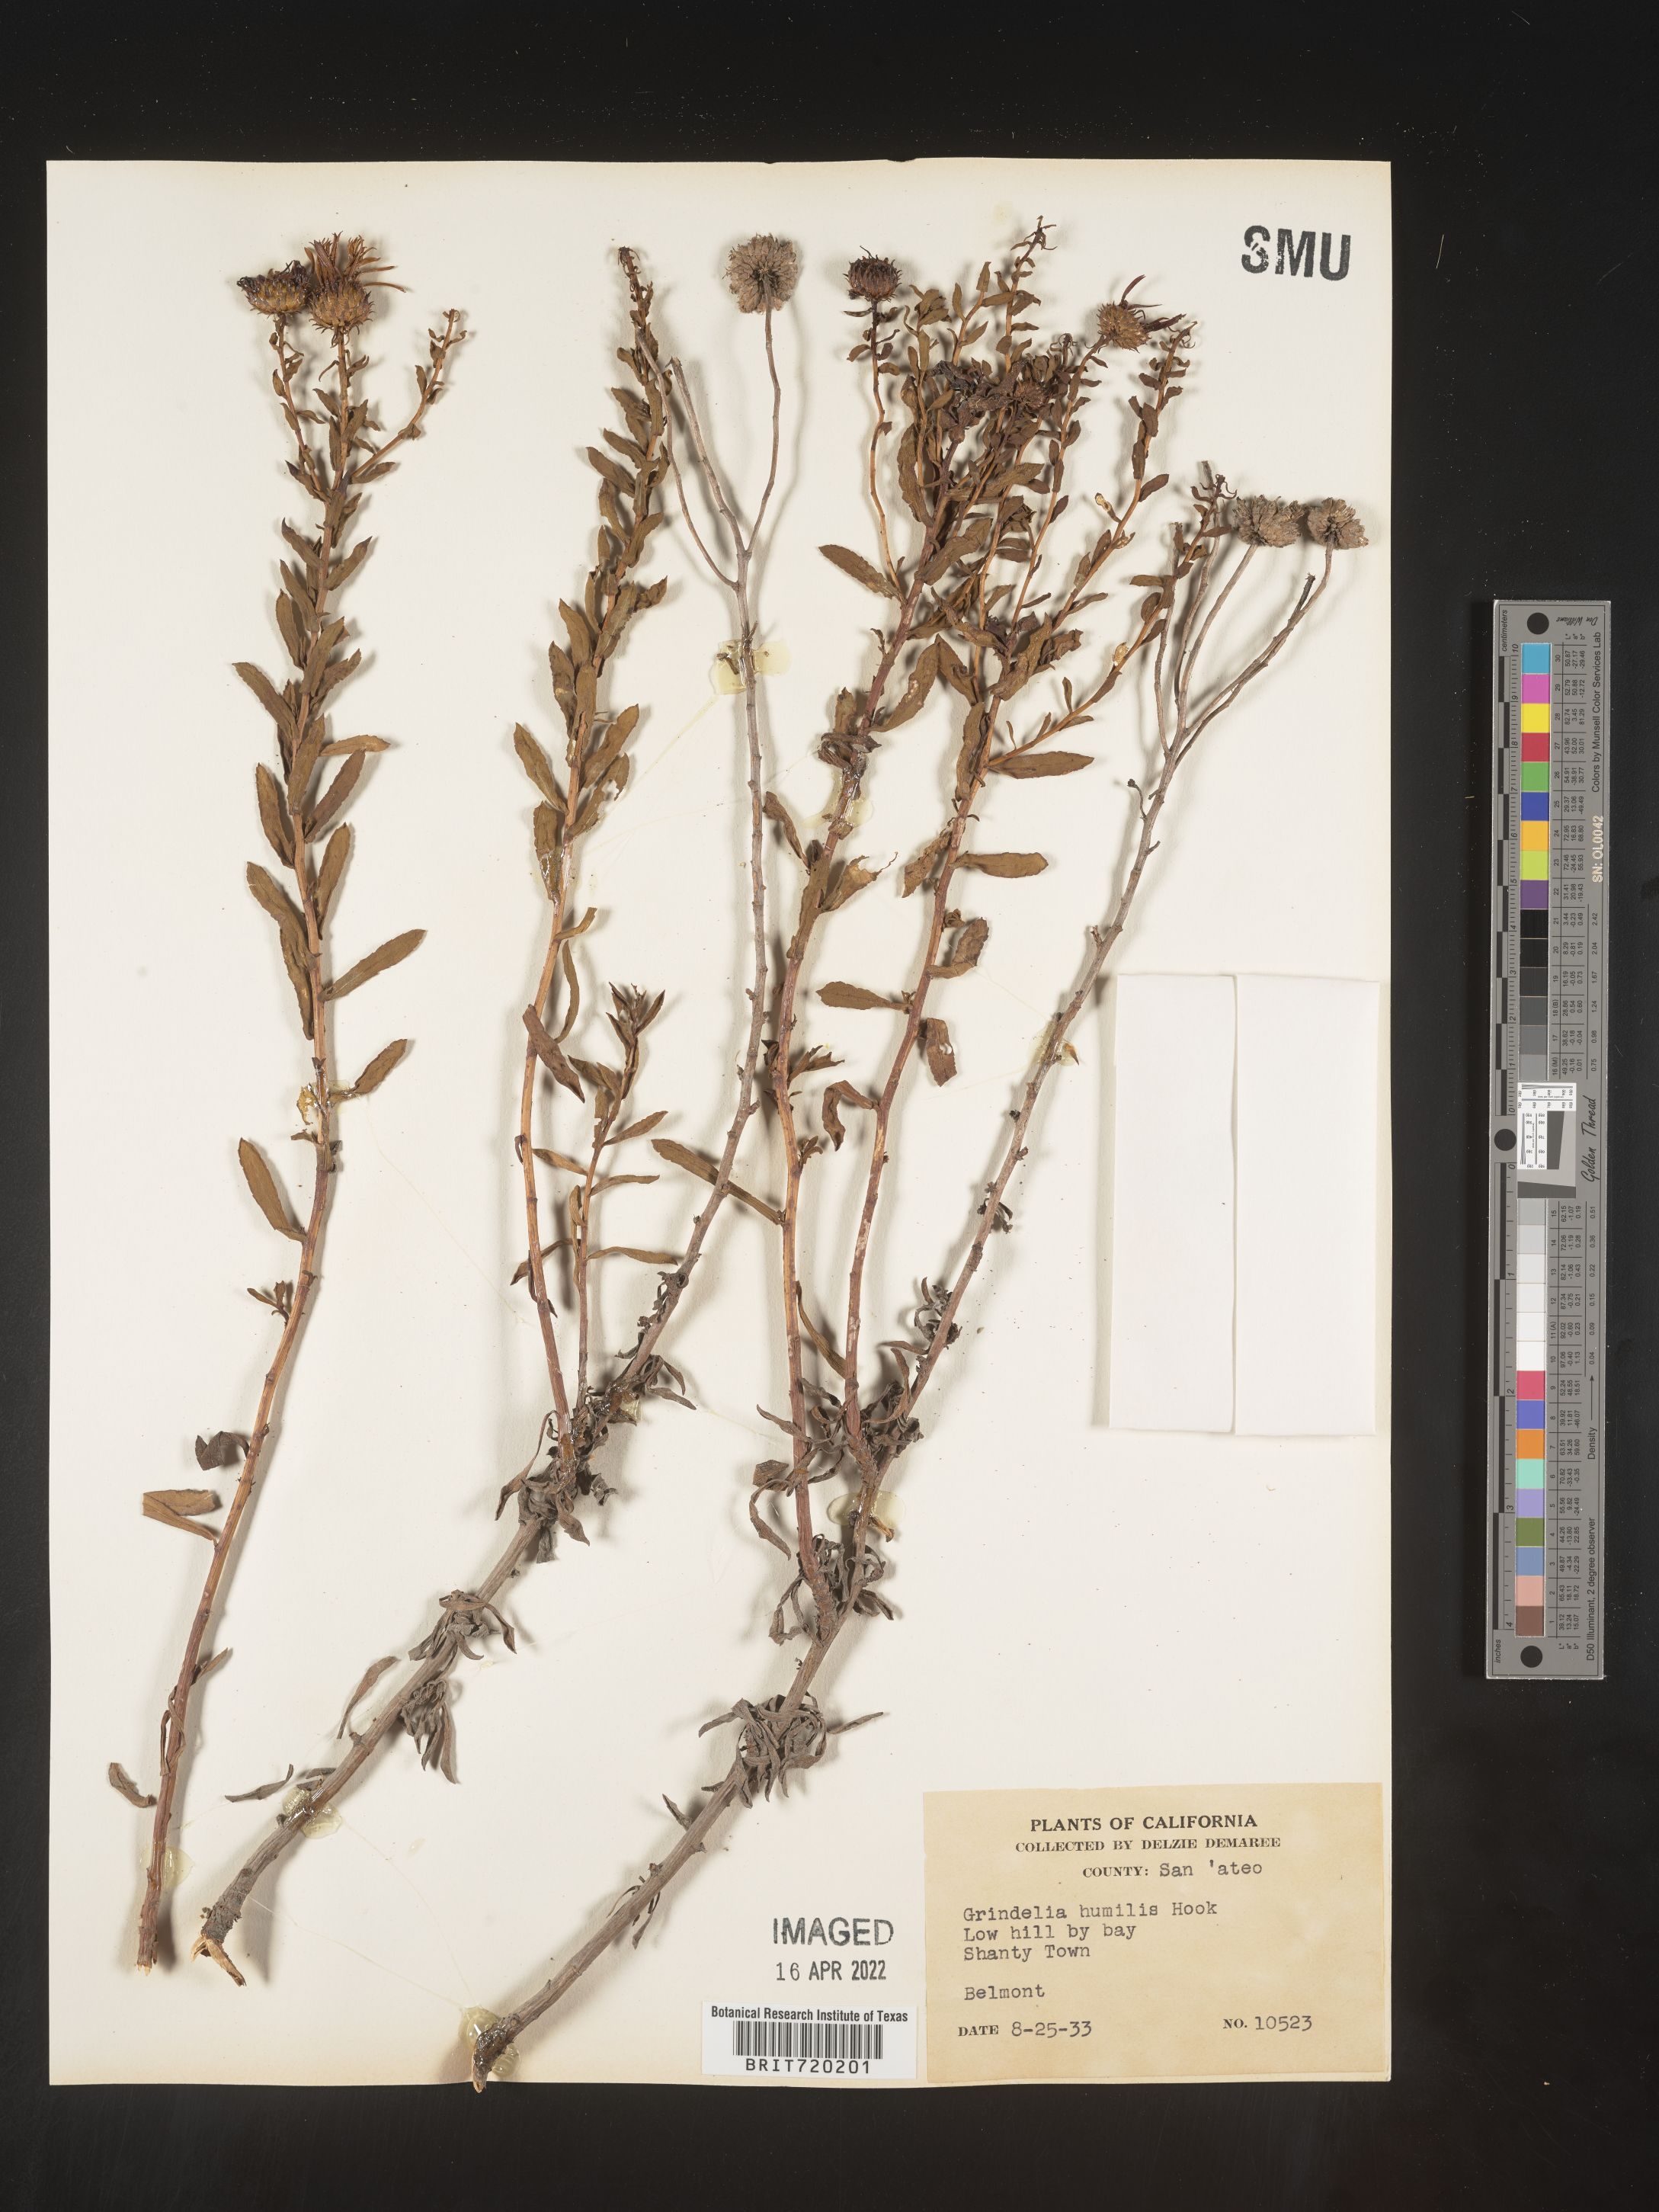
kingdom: Plantae
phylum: Tracheophyta
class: Magnoliopsida
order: Asterales
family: Asteraceae
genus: Grindelia
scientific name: Grindelia hirsutula
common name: Hairy gumweed
